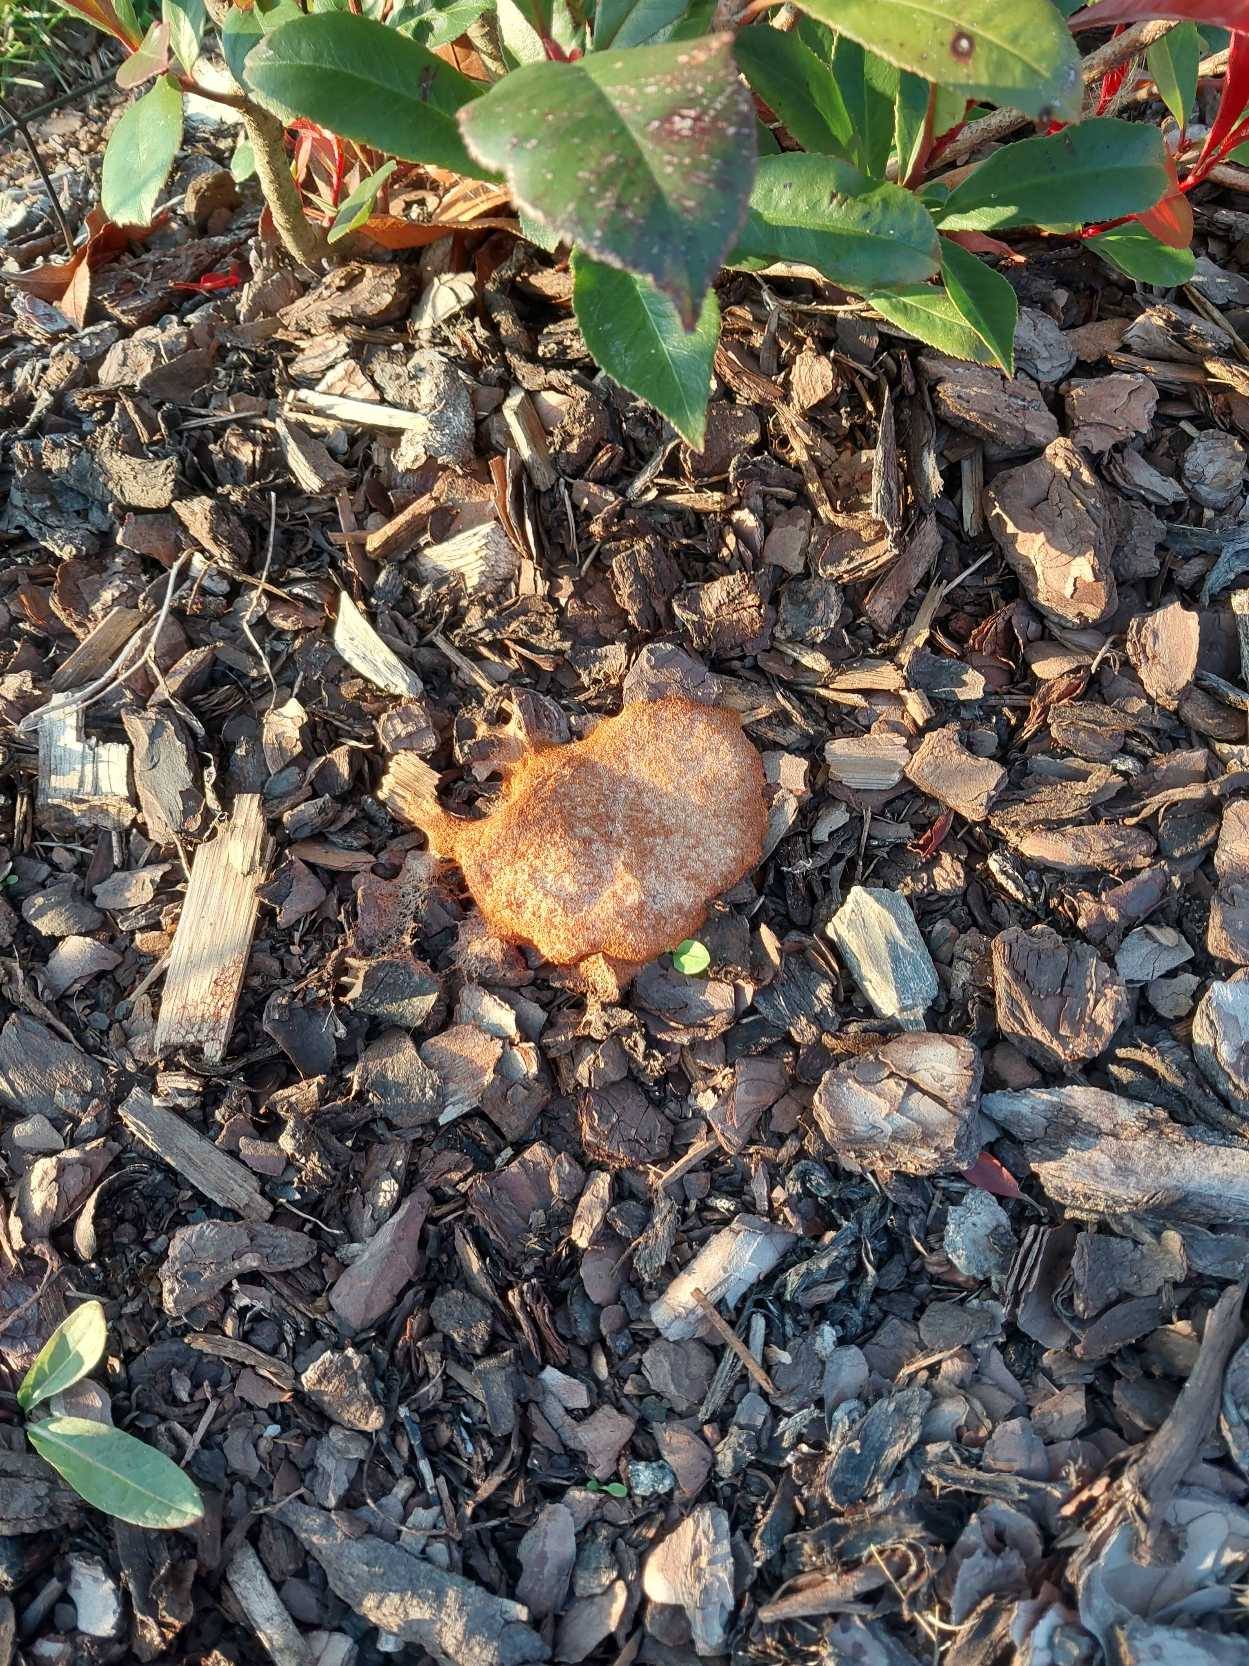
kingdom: Animalia
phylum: Chordata
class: Mammalia
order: Erinaceomorpha
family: Erinaceidae
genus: Erinaceus
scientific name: Erinaceus europaeus
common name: Pindsvin
